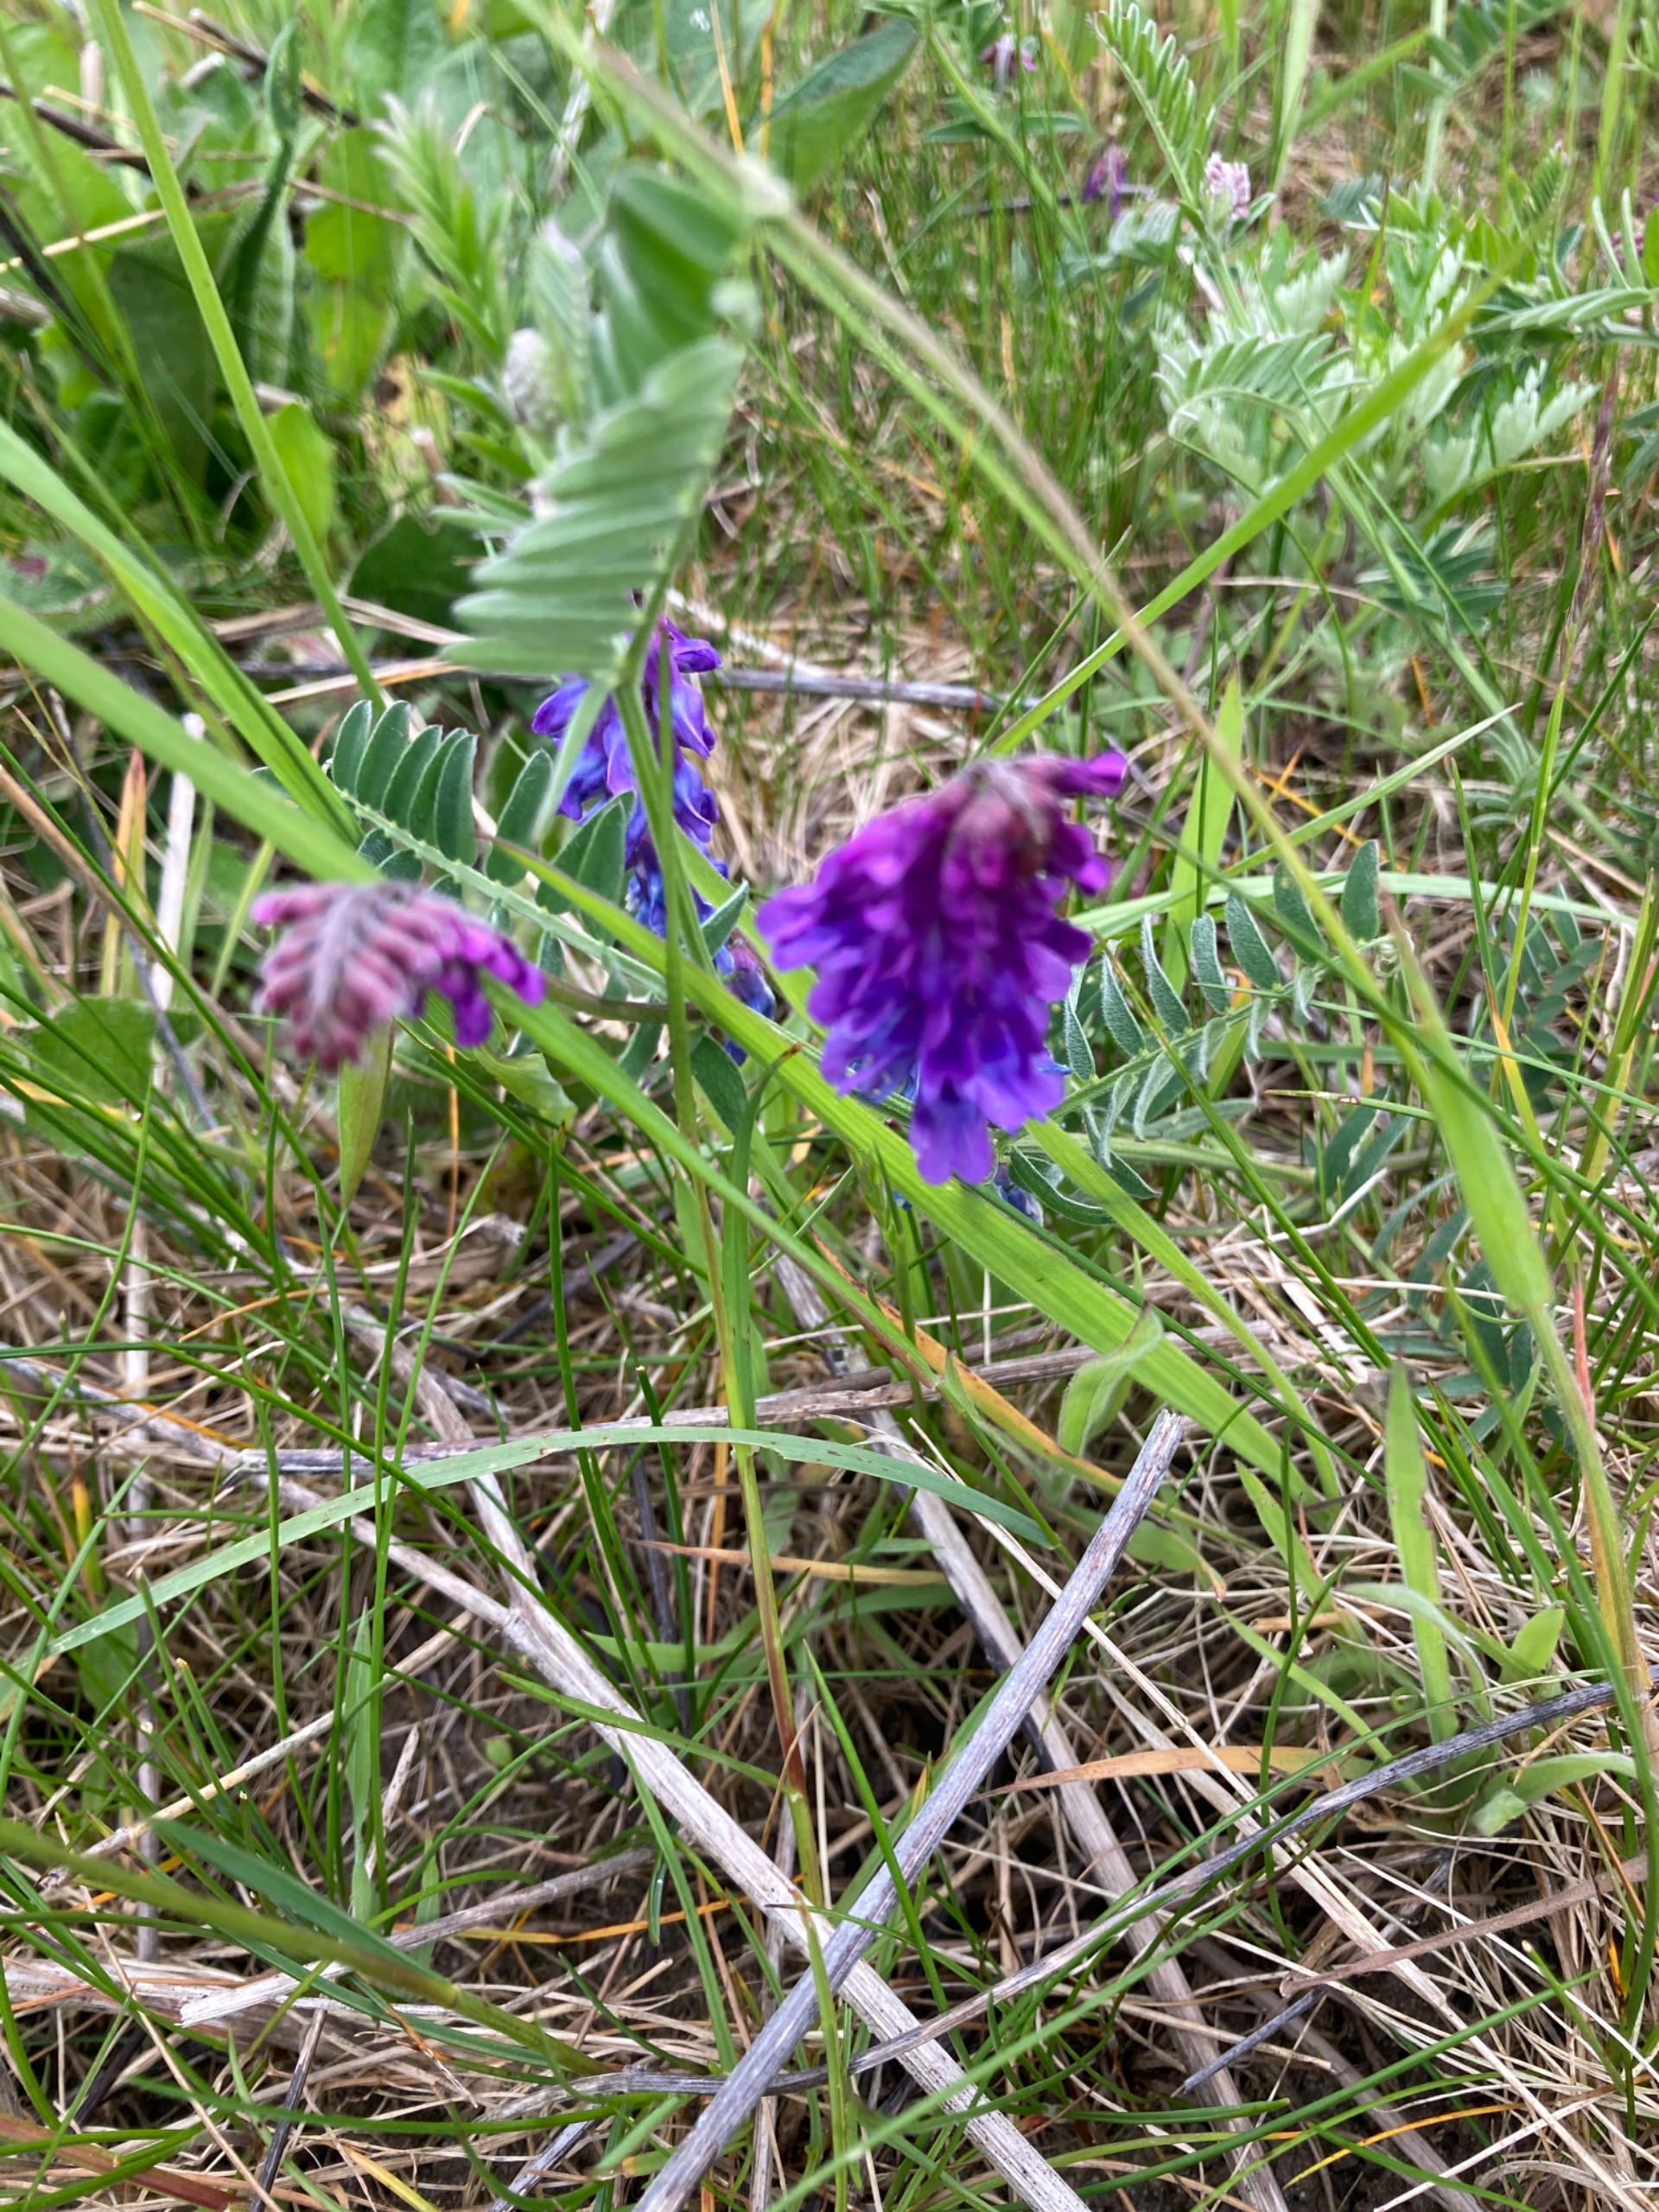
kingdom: Plantae
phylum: Tracheophyta
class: Magnoliopsida
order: Fabales
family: Fabaceae
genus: Vicia
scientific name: Vicia cracca
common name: Muse-vikke
